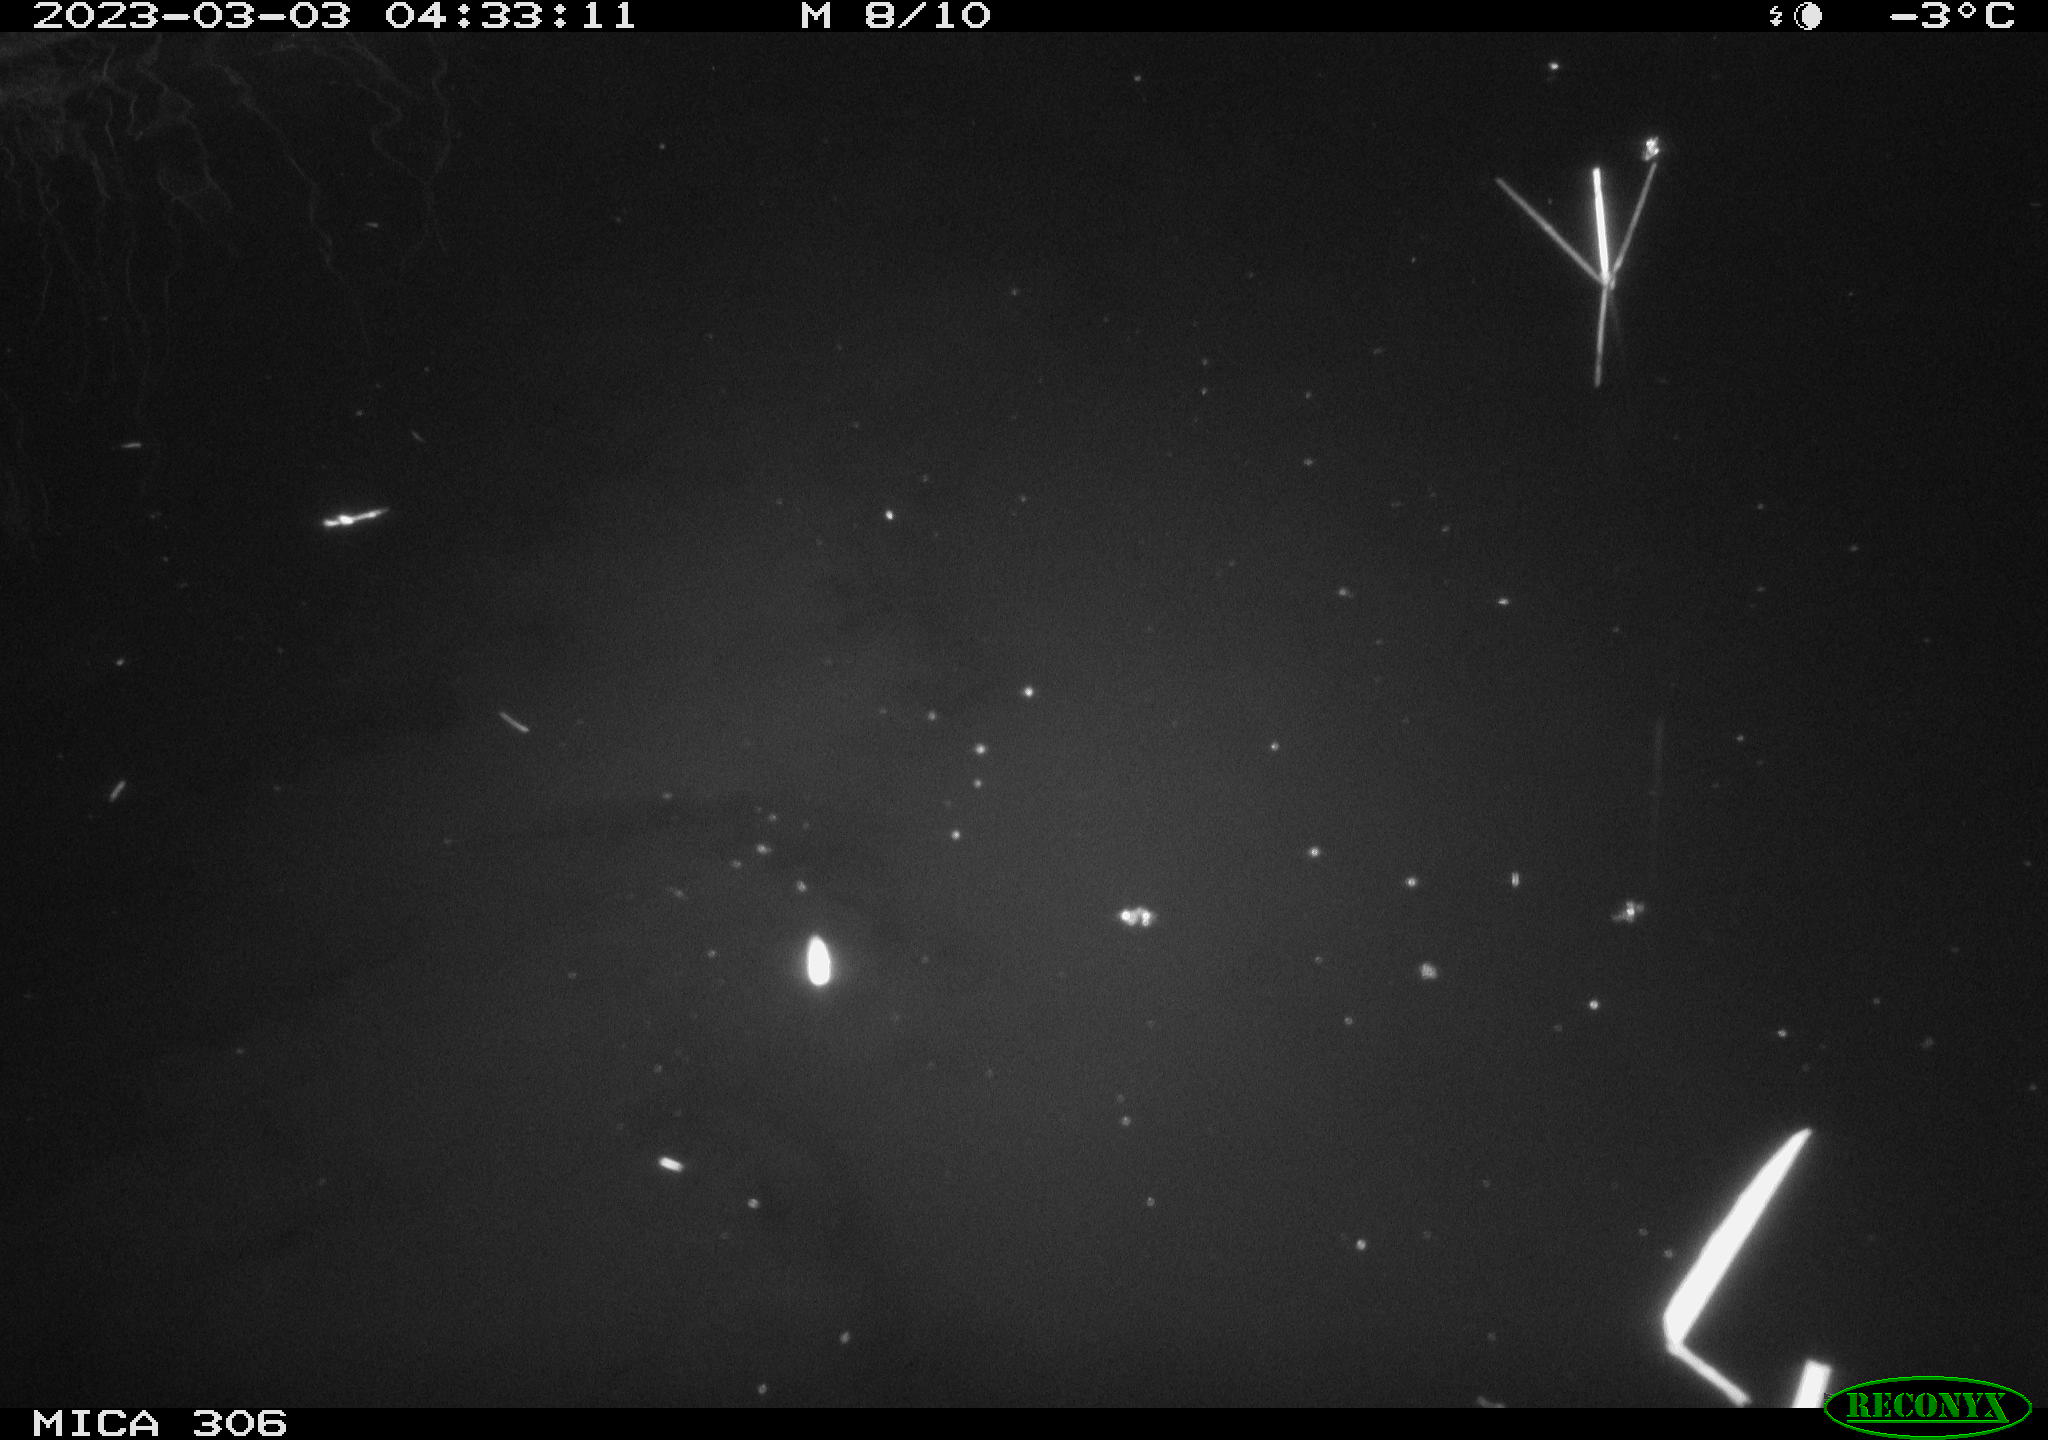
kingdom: Animalia
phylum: Chordata
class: Mammalia
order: Rodentia
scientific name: Rodentia
